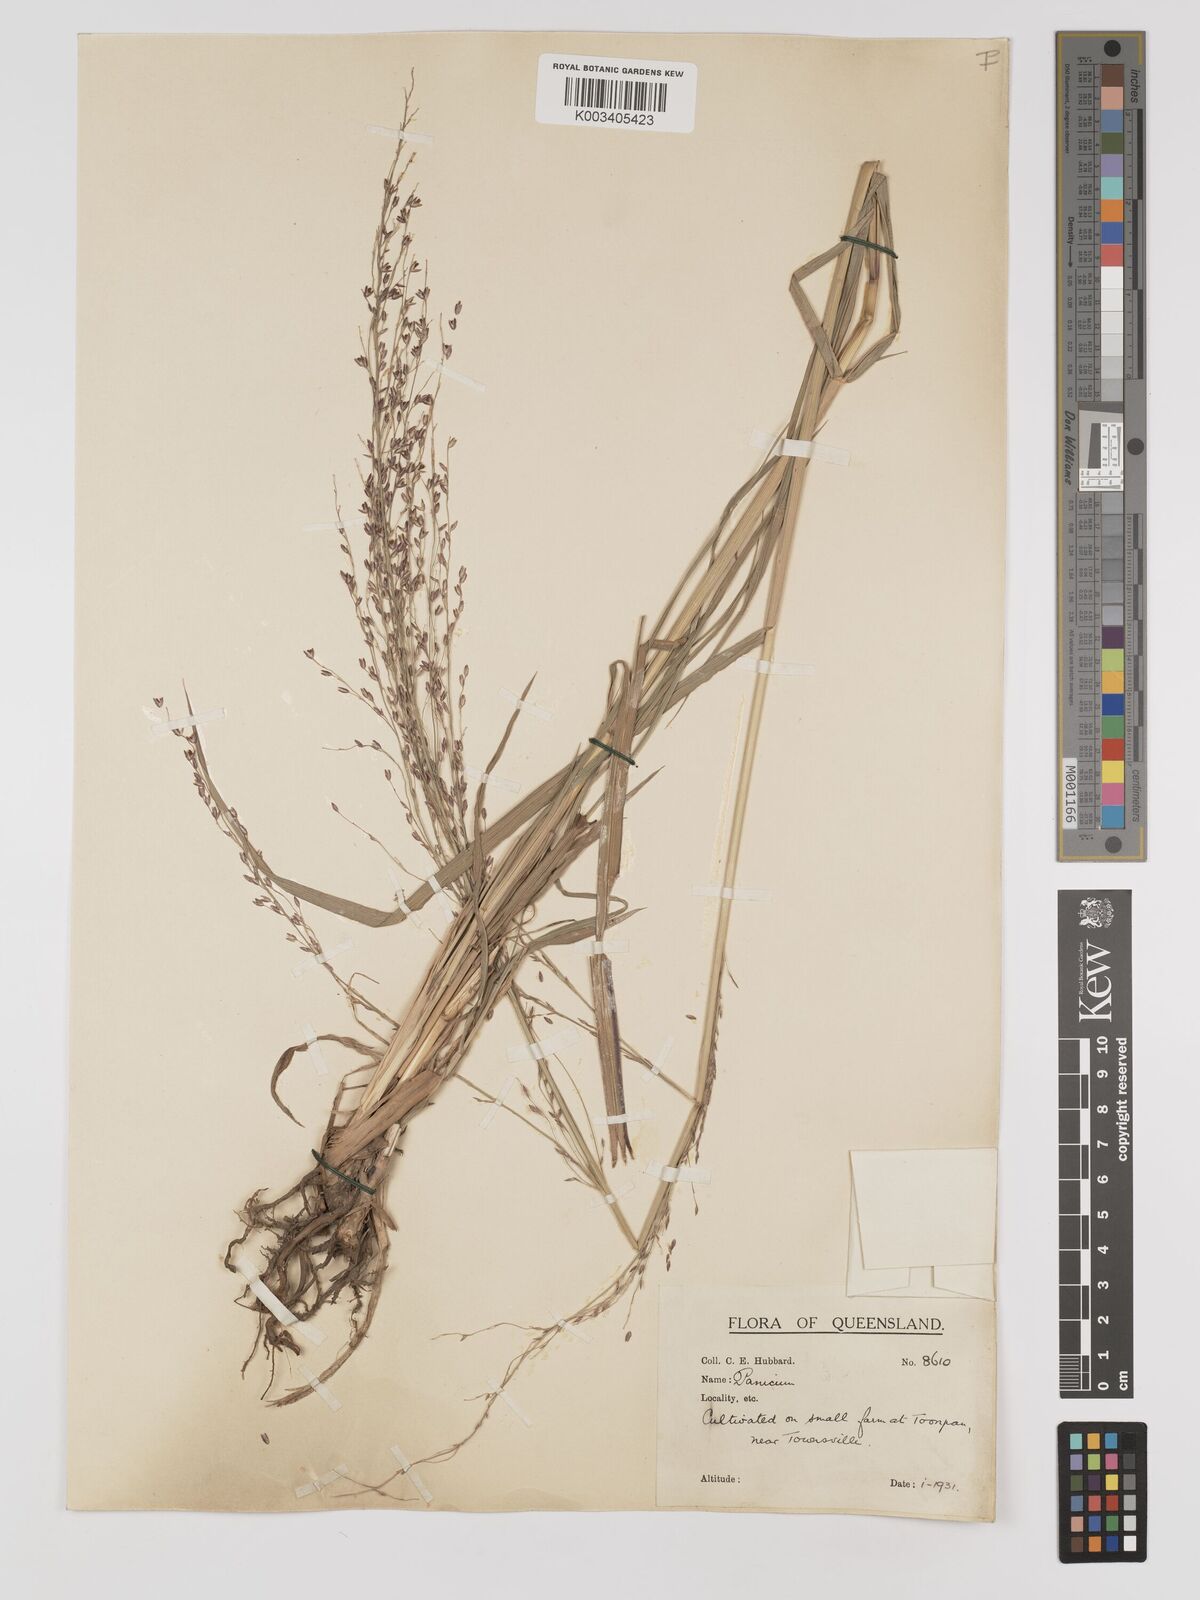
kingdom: Plantae
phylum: Tracheophyta
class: Liliopsida
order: Poales
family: Poaceae
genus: Megathyrsus
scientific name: Megathyrsus maximus
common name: Guineagrass
